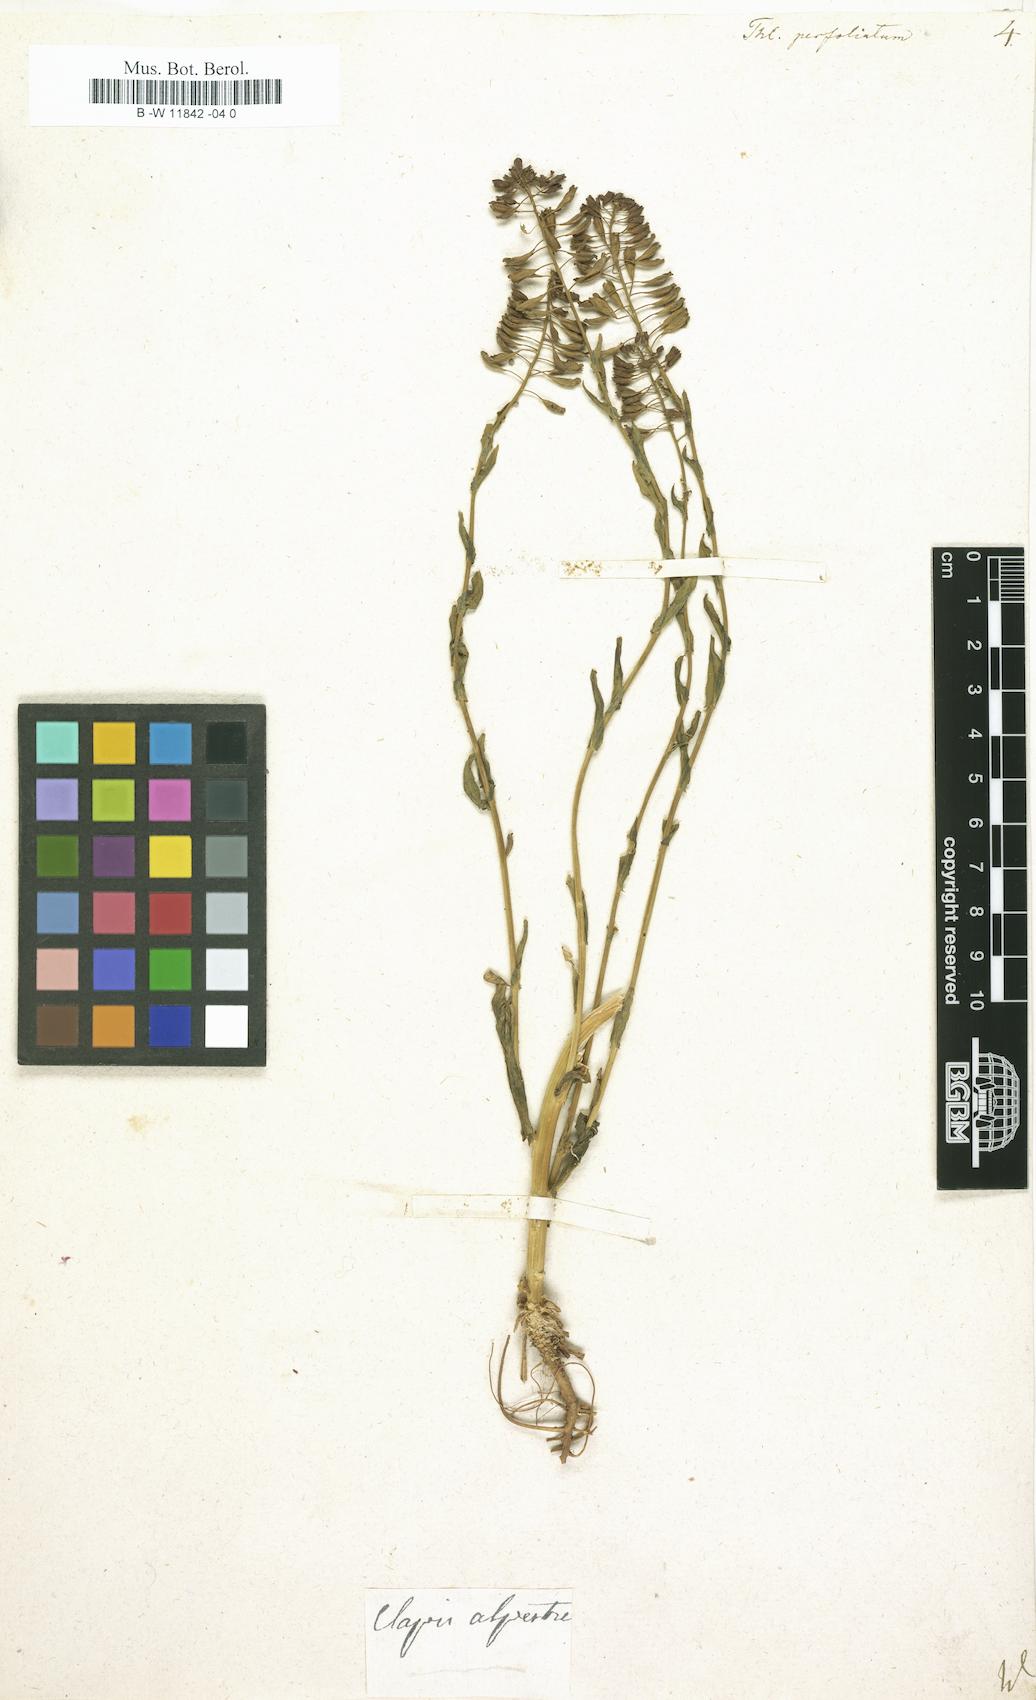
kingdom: Plantae
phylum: Tracheophyta
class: Magnoliopsida
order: Brassicales
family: Brassicaceae
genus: Noccaea
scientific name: Noccaea perfoliata
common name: Perfoliate pennycress
